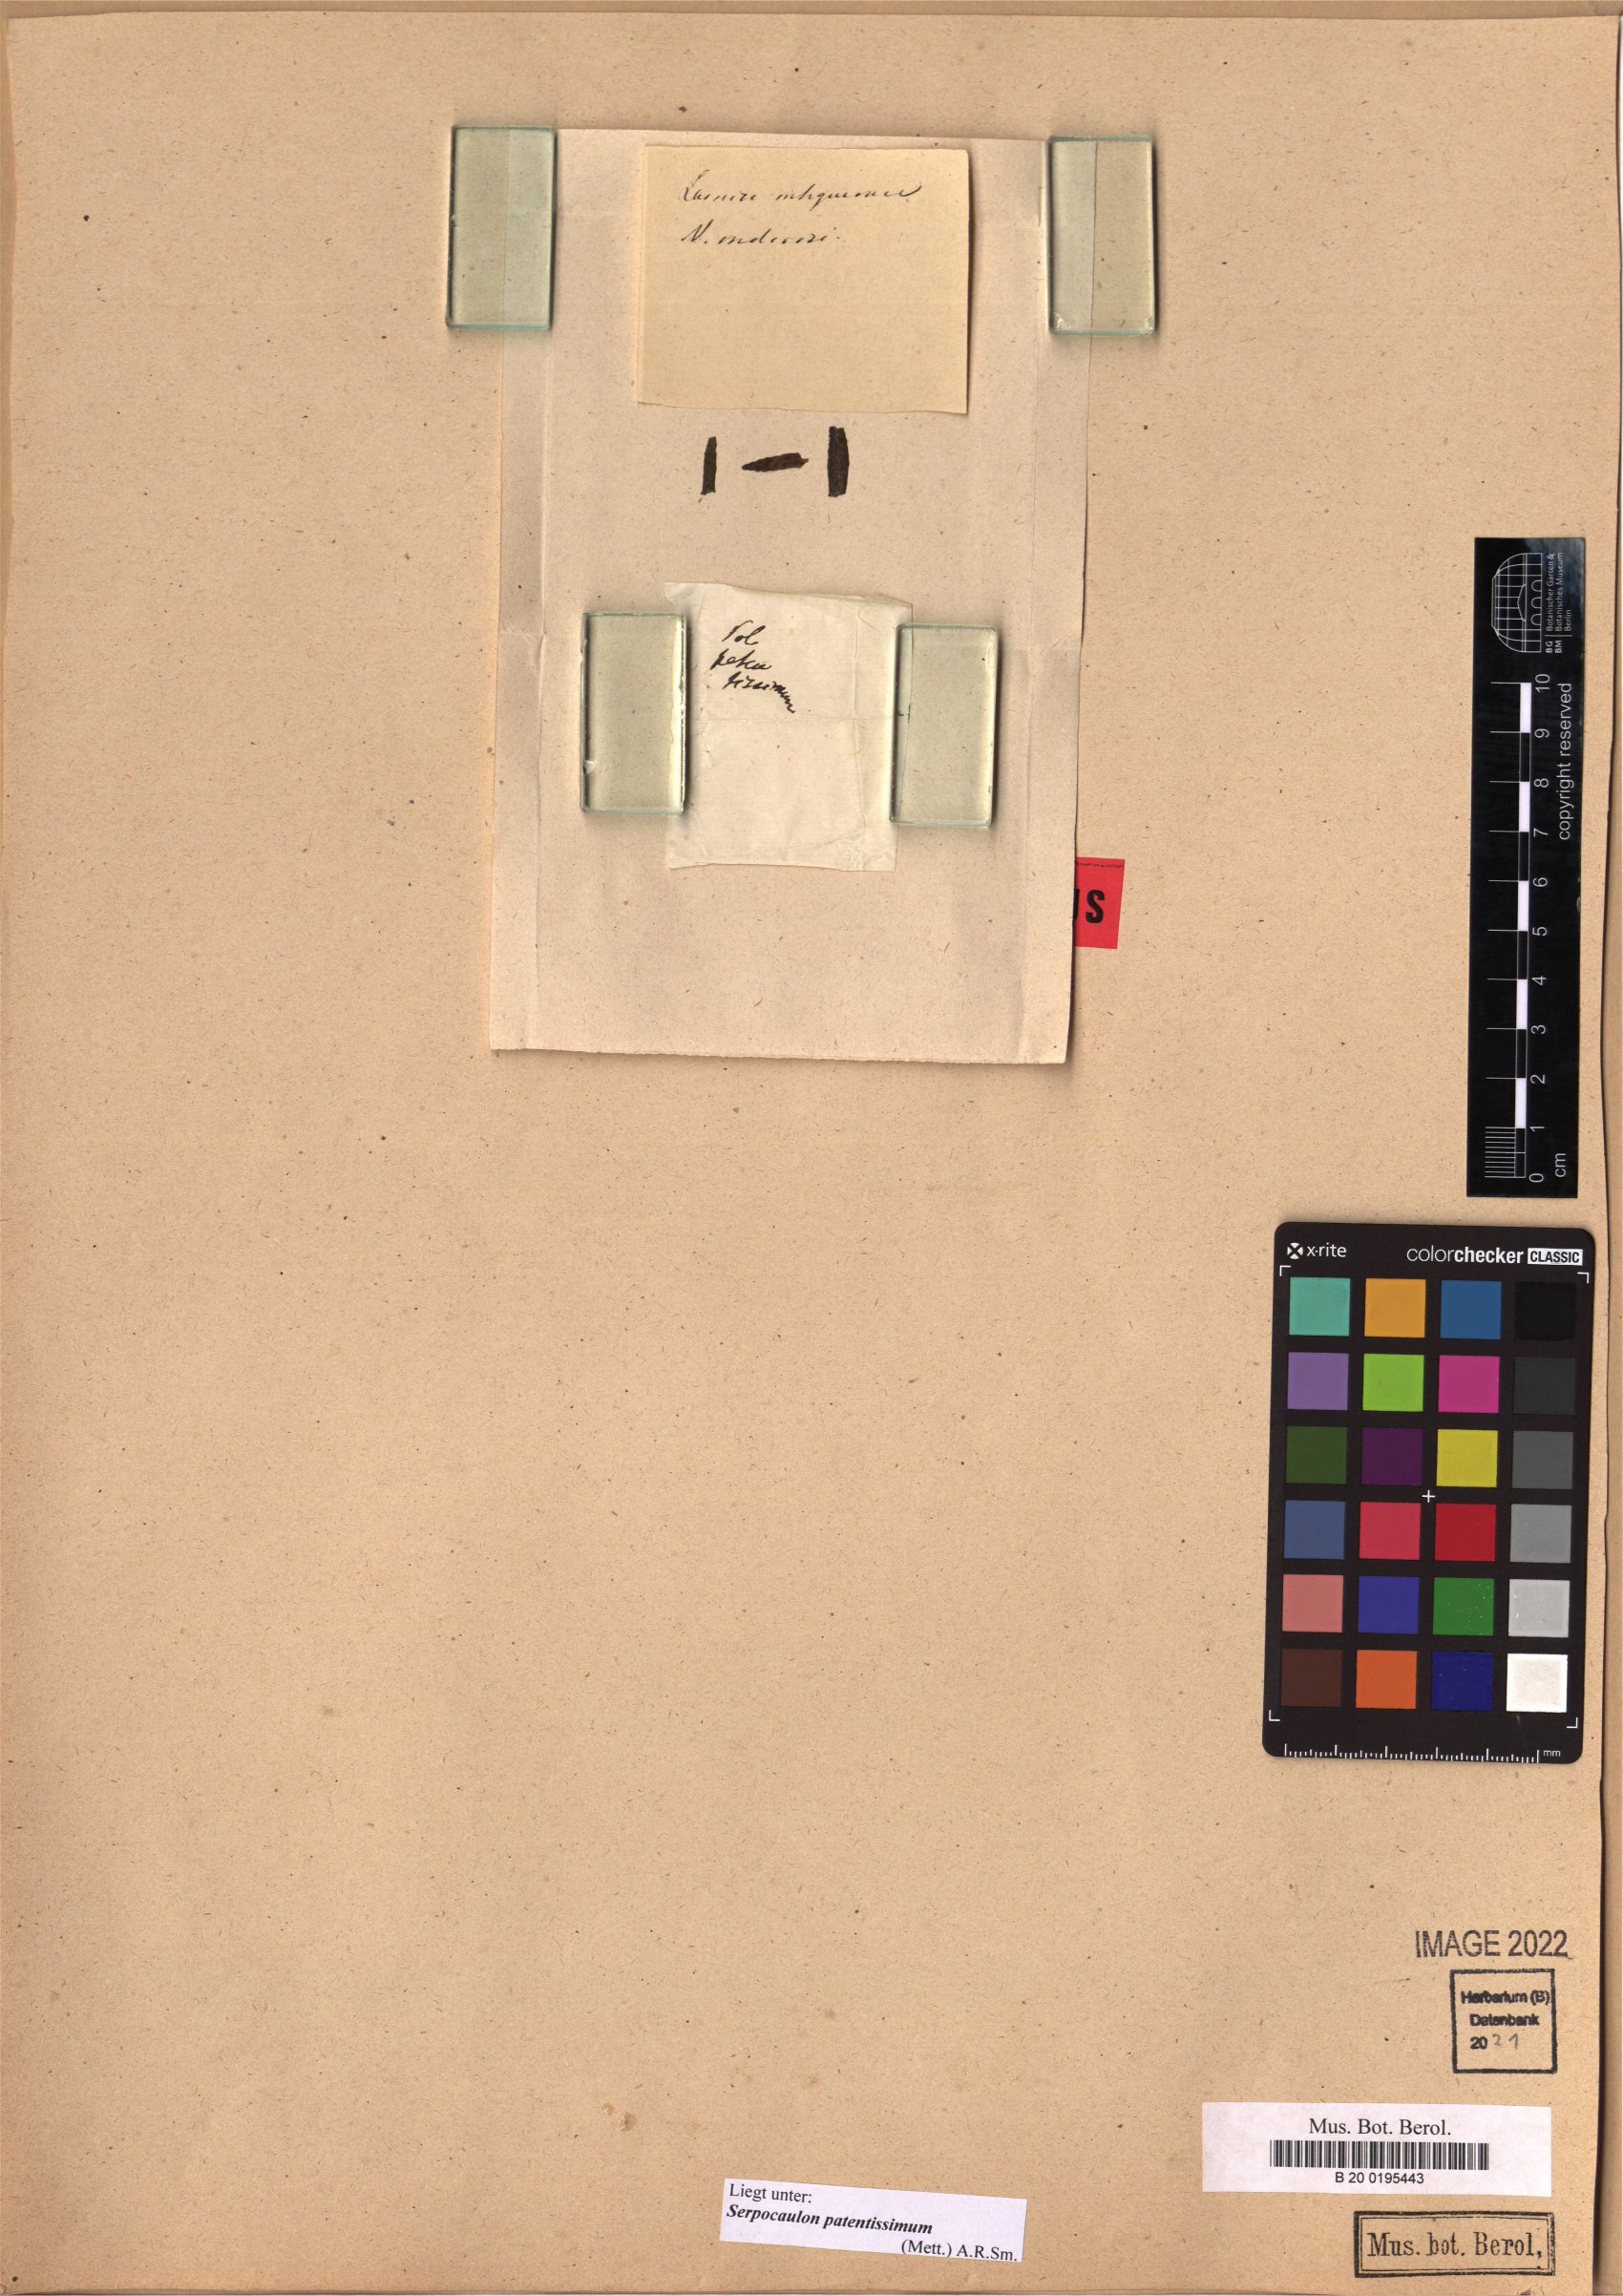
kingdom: Plantae
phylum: Tracheophyta
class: Polypodiopsida
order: Polypodiales
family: Polypodiaceae
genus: Serpocaulon
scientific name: Serpocaulon patentissimum
